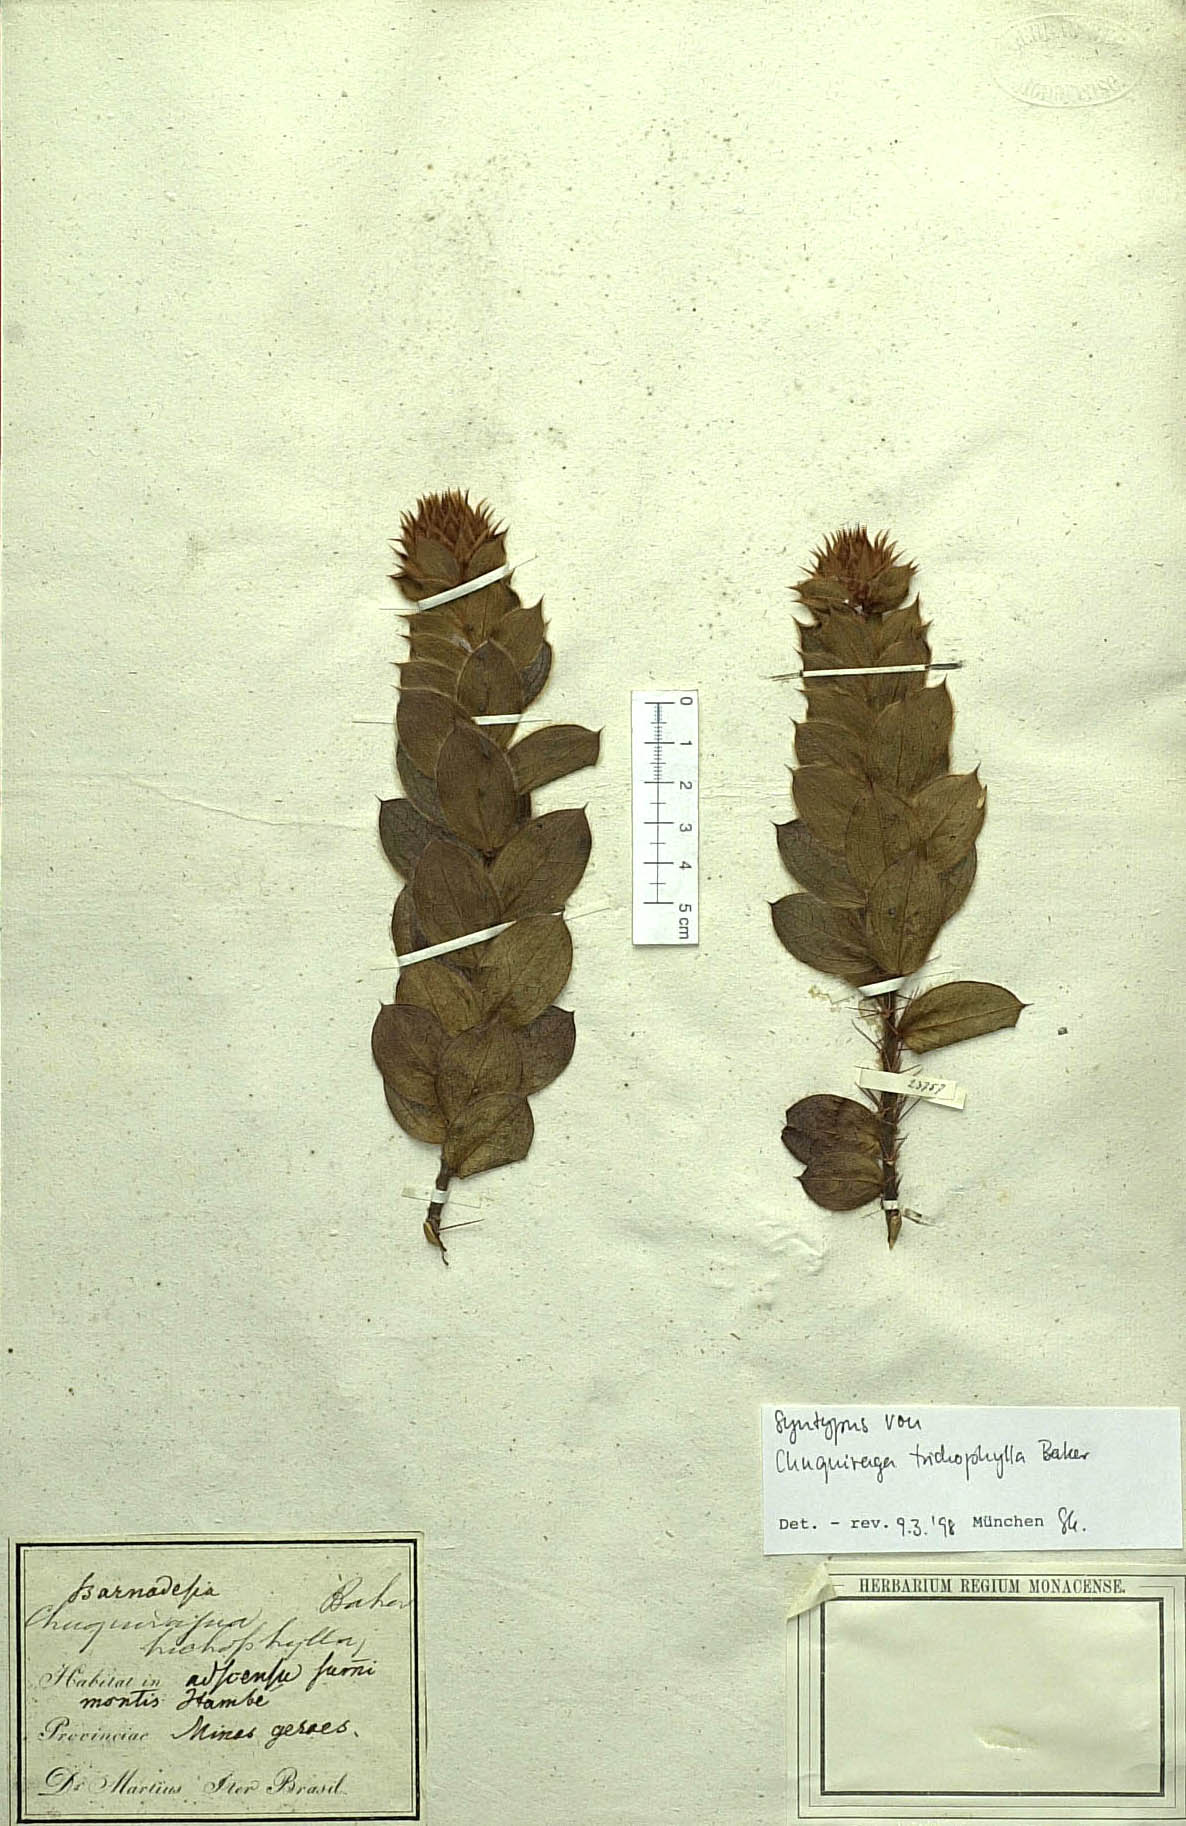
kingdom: Plantae
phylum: Tracheophyta
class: Magnoliopsida
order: Asterales
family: Asteraceae
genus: Dasyphyllum
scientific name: Dasyphyllum trichophyllum
